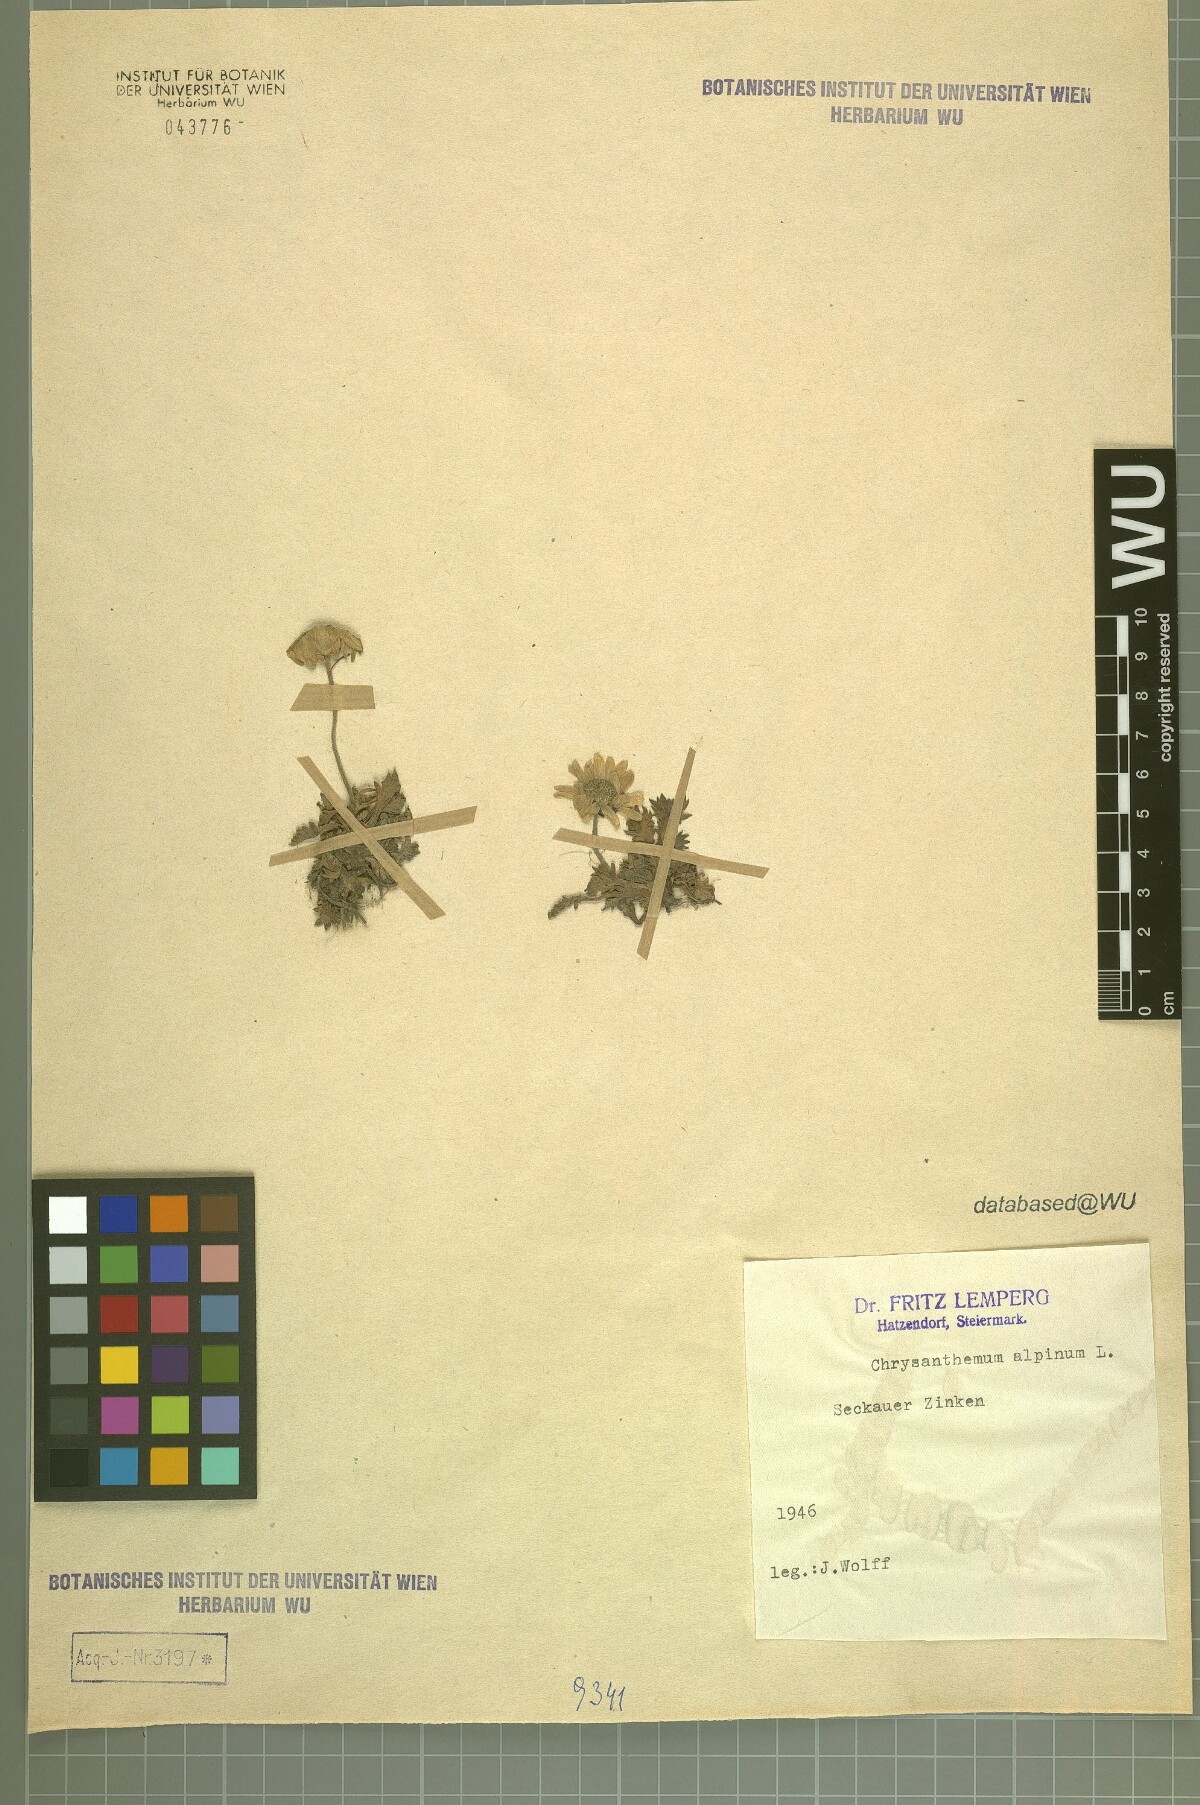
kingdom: Plantae
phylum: Tracheophyta
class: Magnoliopsida
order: Asterales
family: Asteraceae
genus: Leucanthemopsis
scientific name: Leucanthemopsis alpina
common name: Alpine moon daisy
